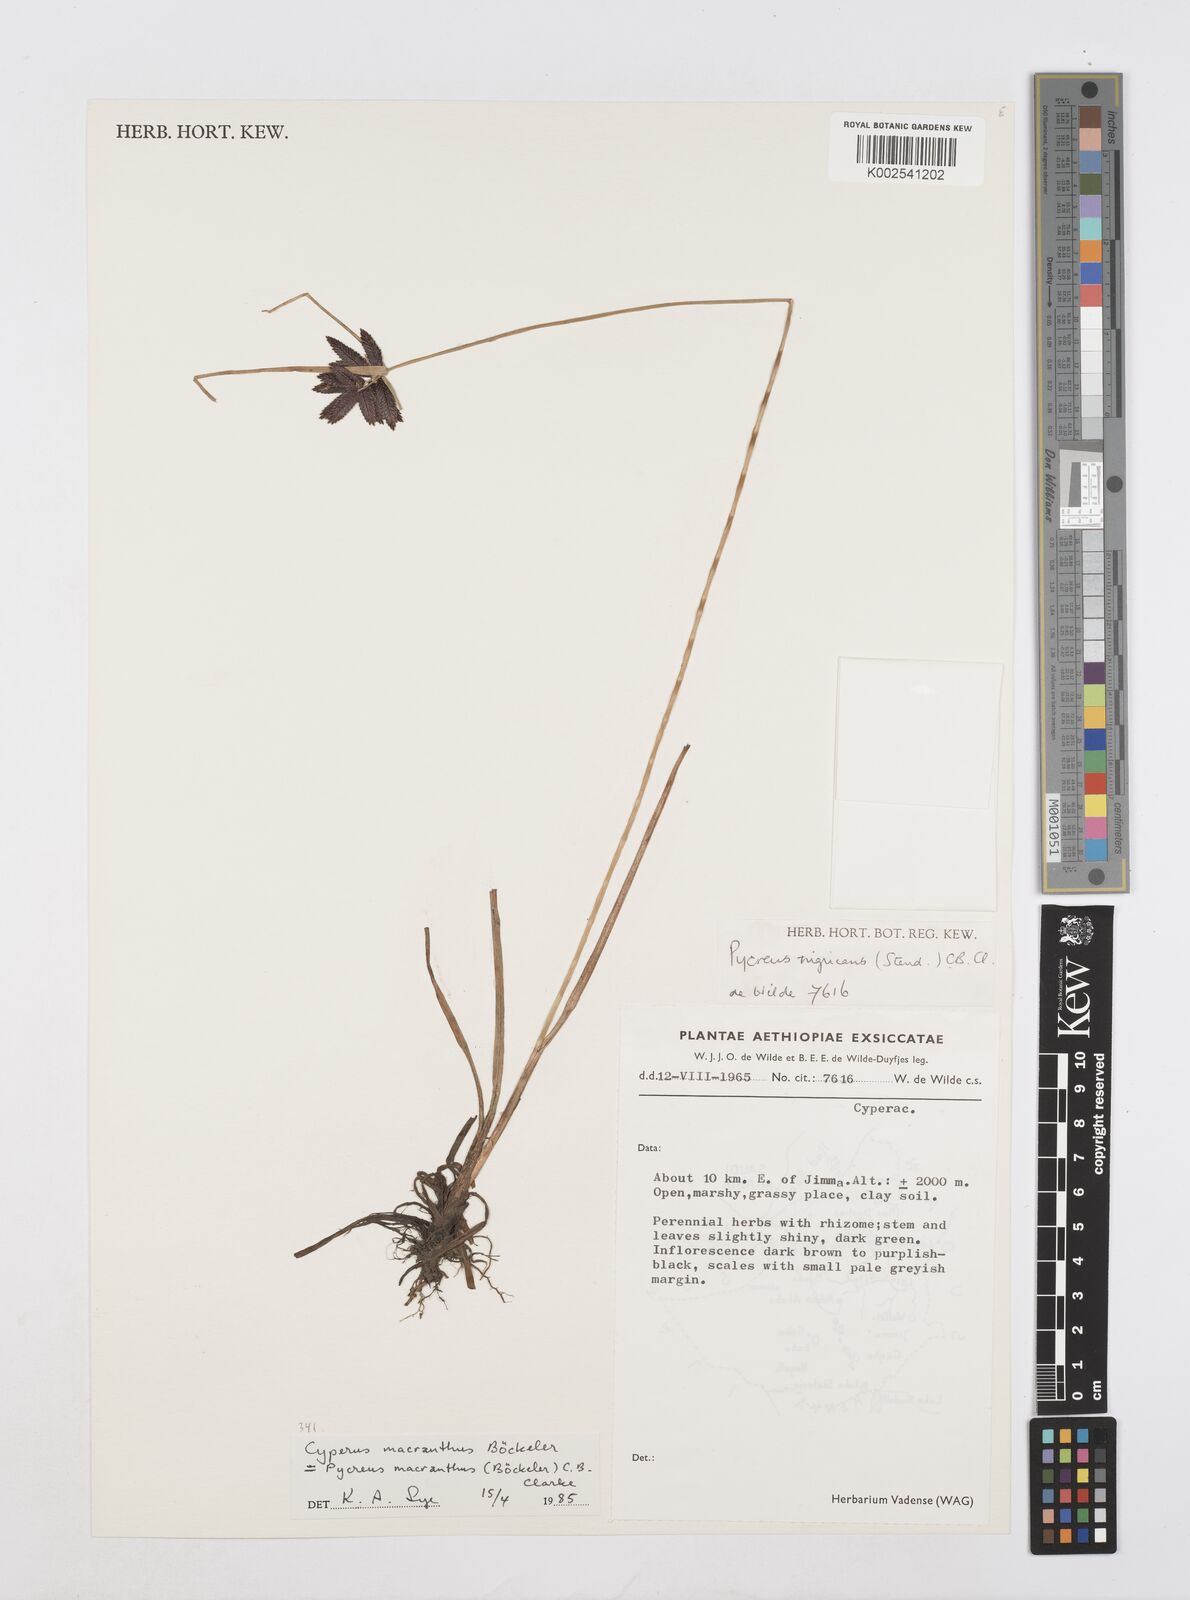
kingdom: Plantae
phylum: Tracheophyta
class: Liliopsida
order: Poales
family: Cyperaceae
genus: Cyperus
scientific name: Cyperus nigricans
